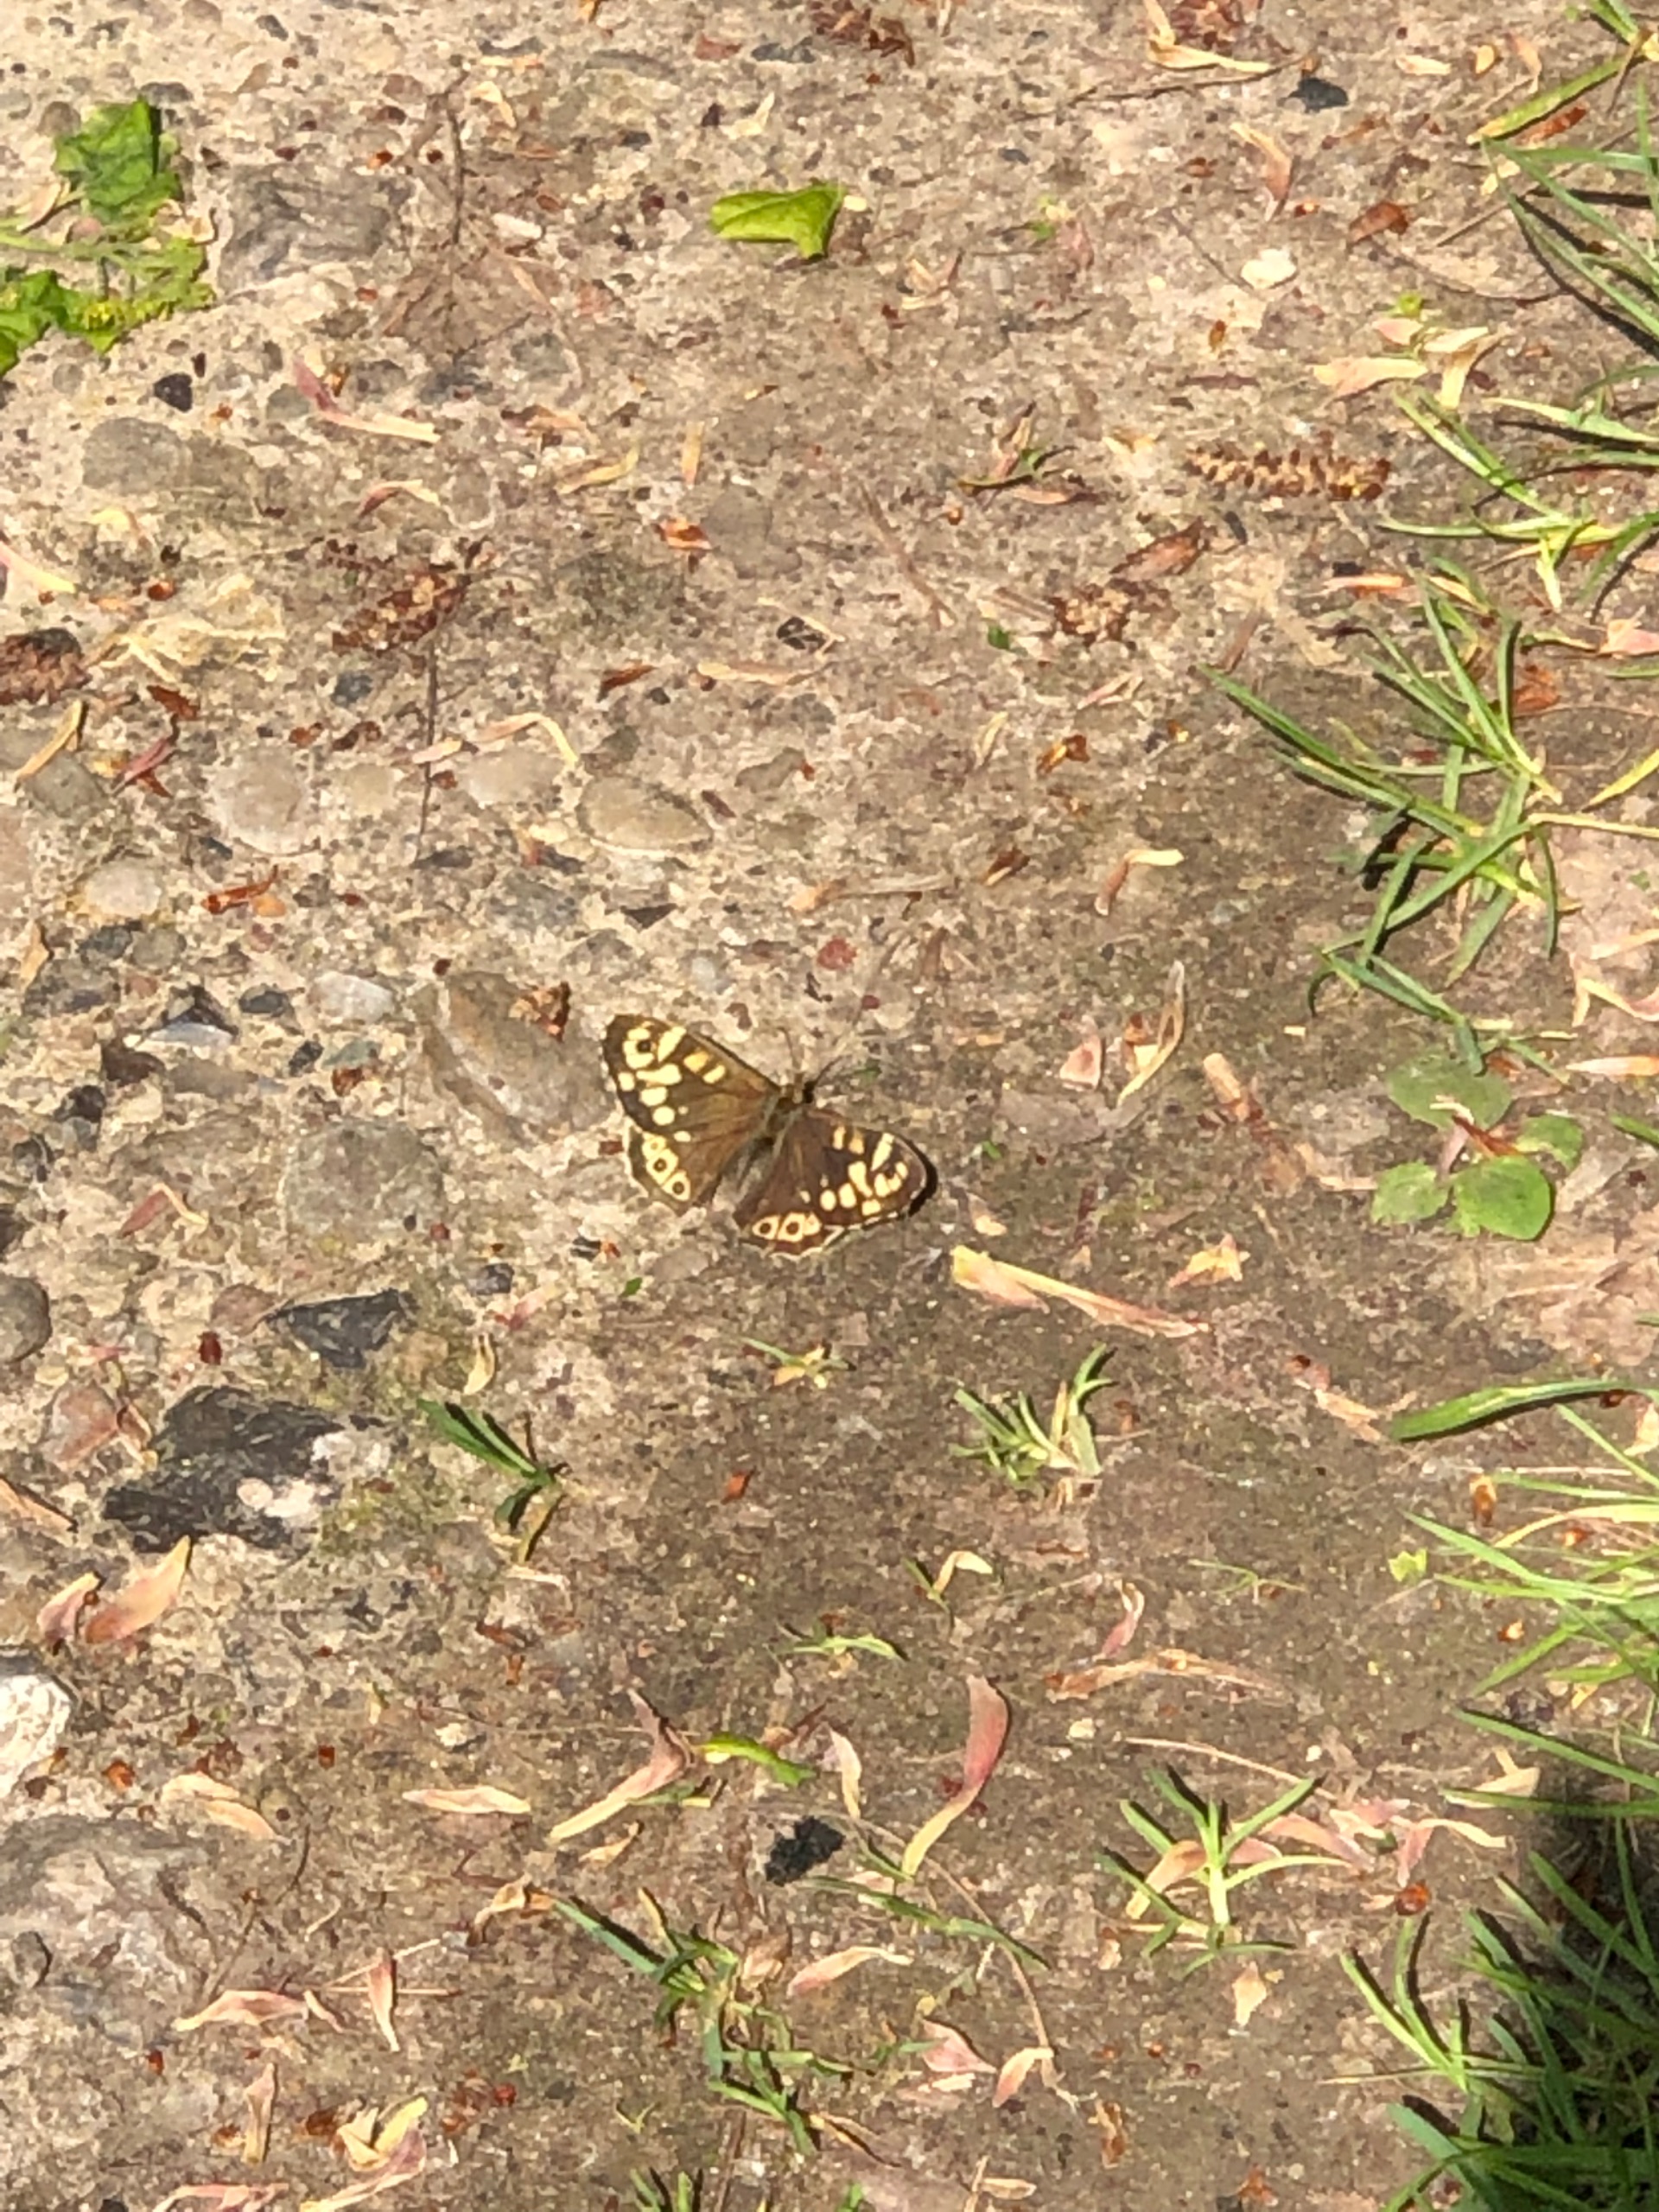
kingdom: Animalia
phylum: Arthropoda
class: Insecta
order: Lepidoptera
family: Nymphalidae
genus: Pararge
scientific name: Pararge aegeria
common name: Skovrandøje
